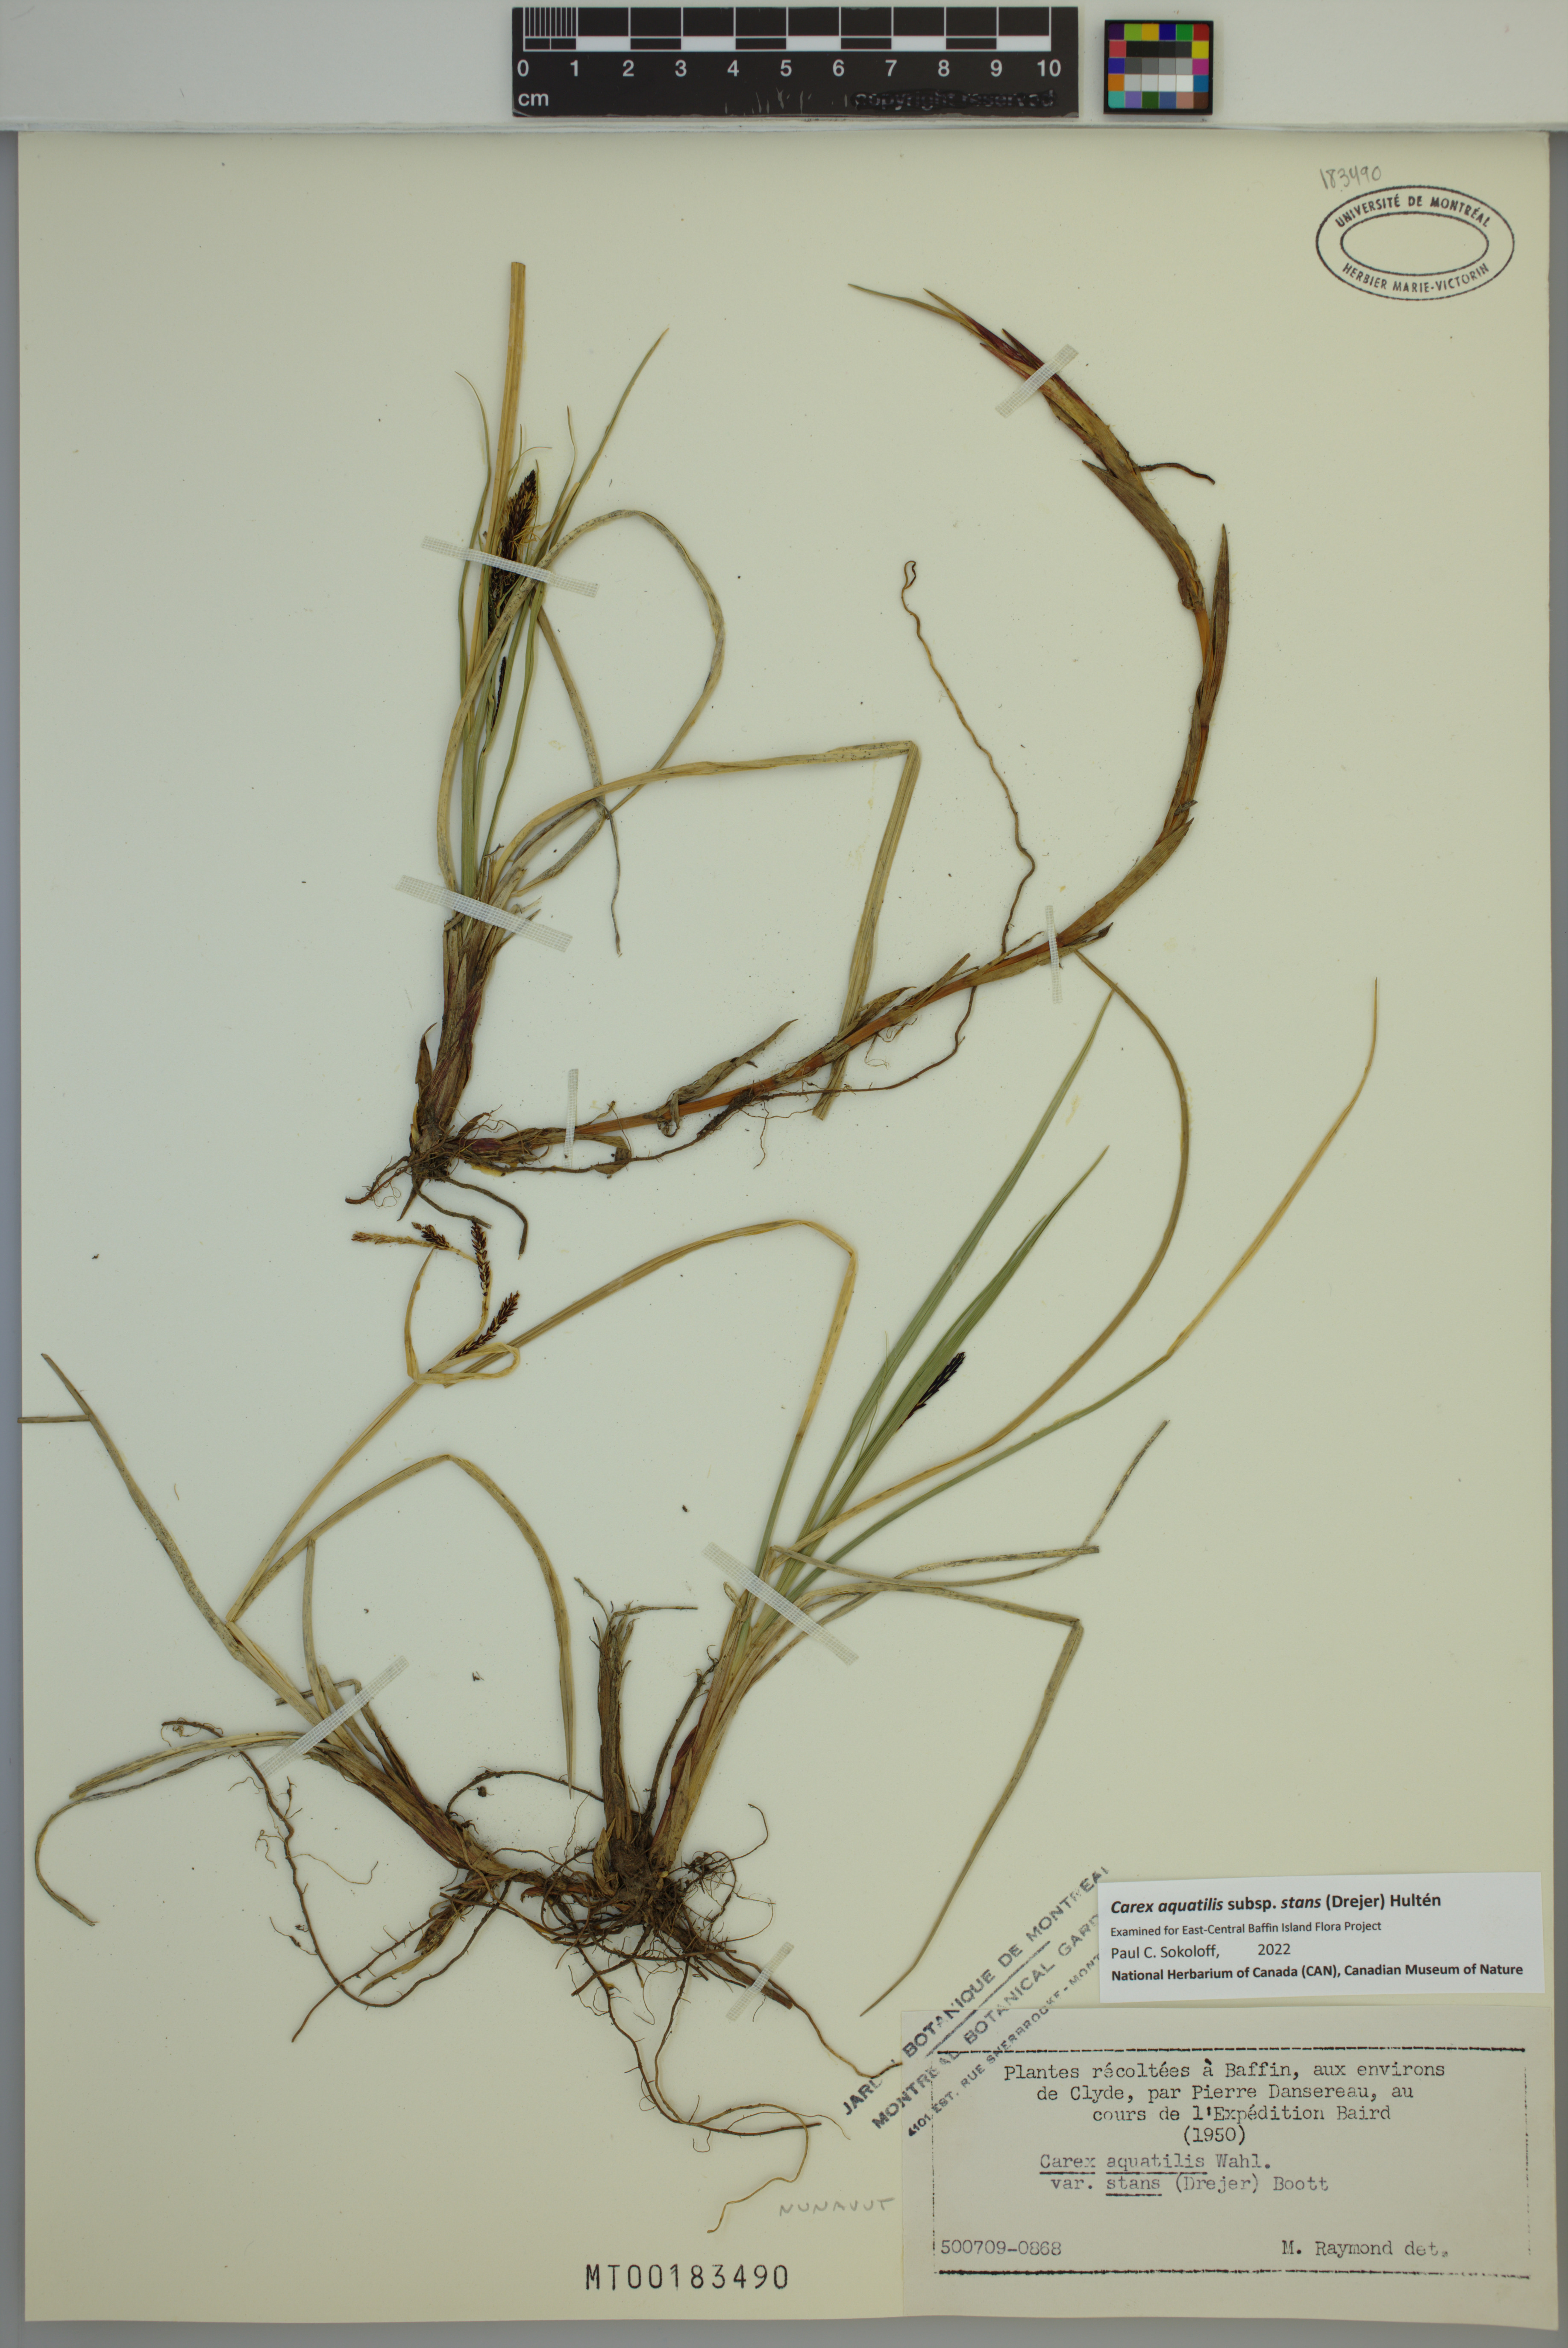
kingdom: Plantae
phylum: Tracheophyta
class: Liliopsida
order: Poales
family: Cyperaceae
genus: Carex
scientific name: Carex aquatilis
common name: Water sedge
